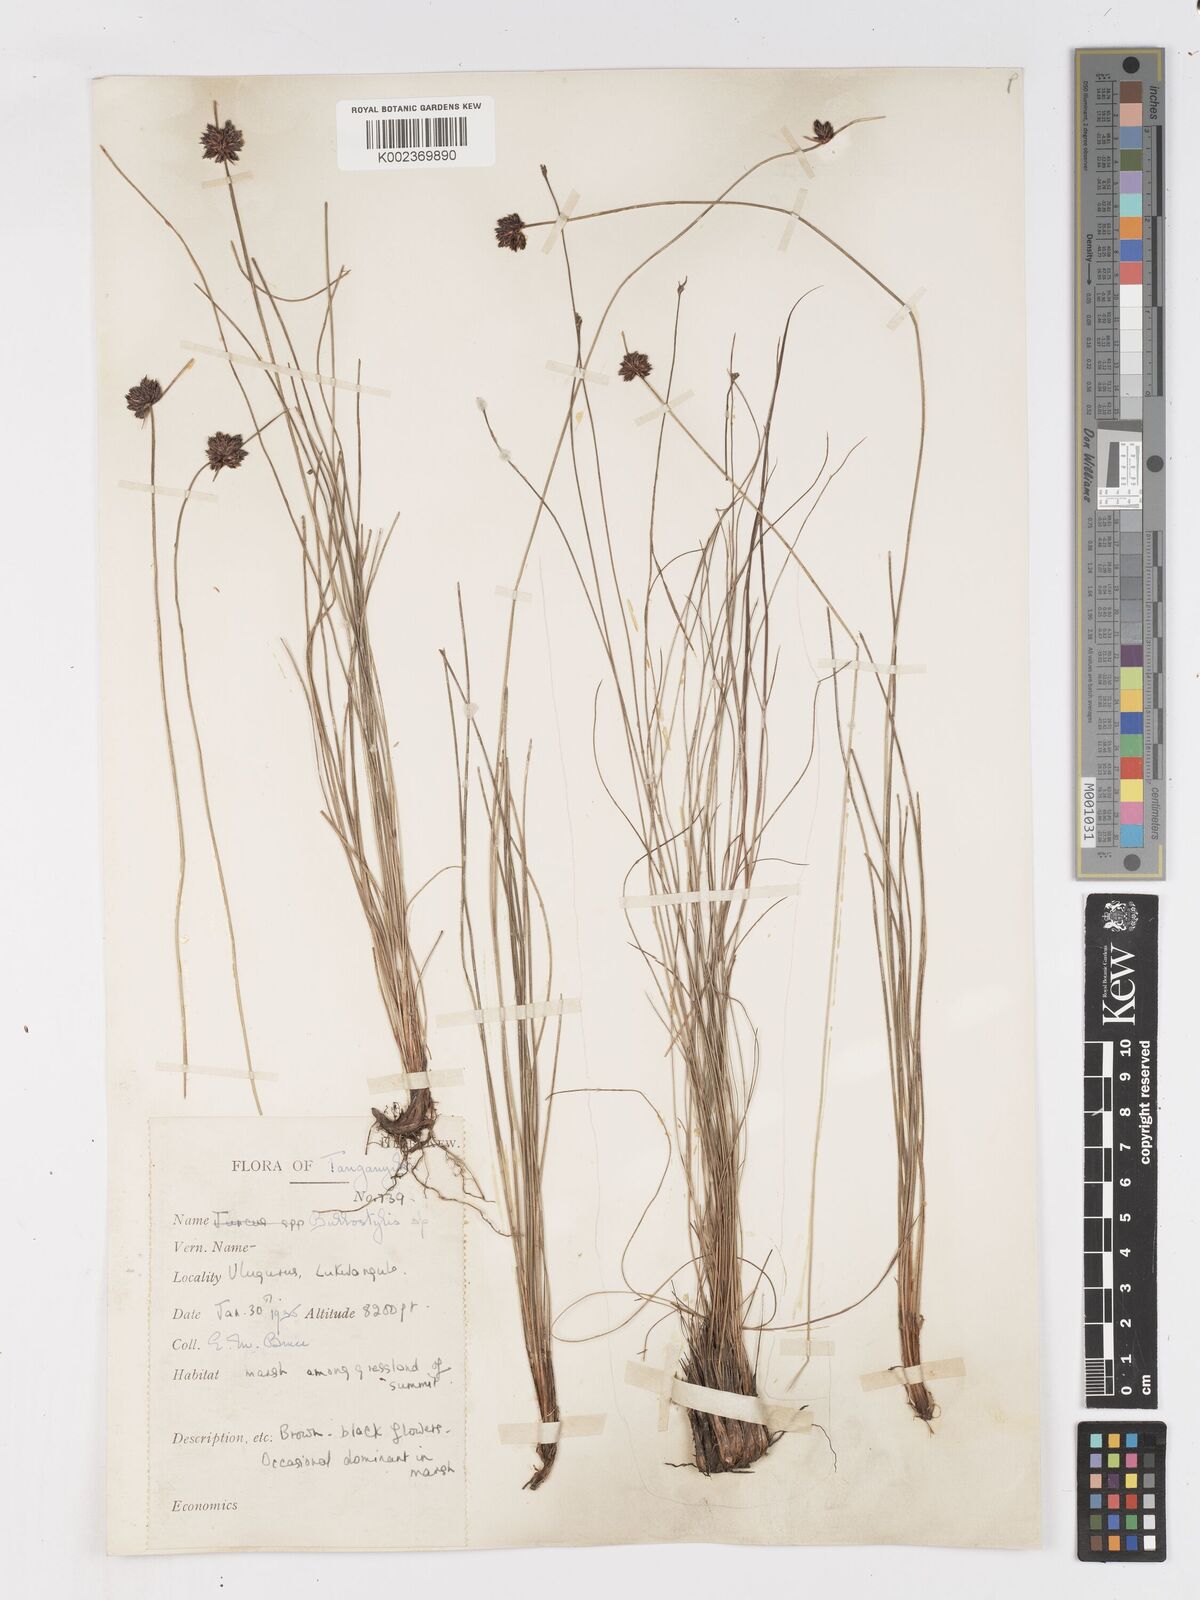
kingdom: Plantae
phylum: Tracheophyta
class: Liliopsida
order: Poales
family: Cyperaceae
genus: Ficinia
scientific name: Ficinia gracilis
